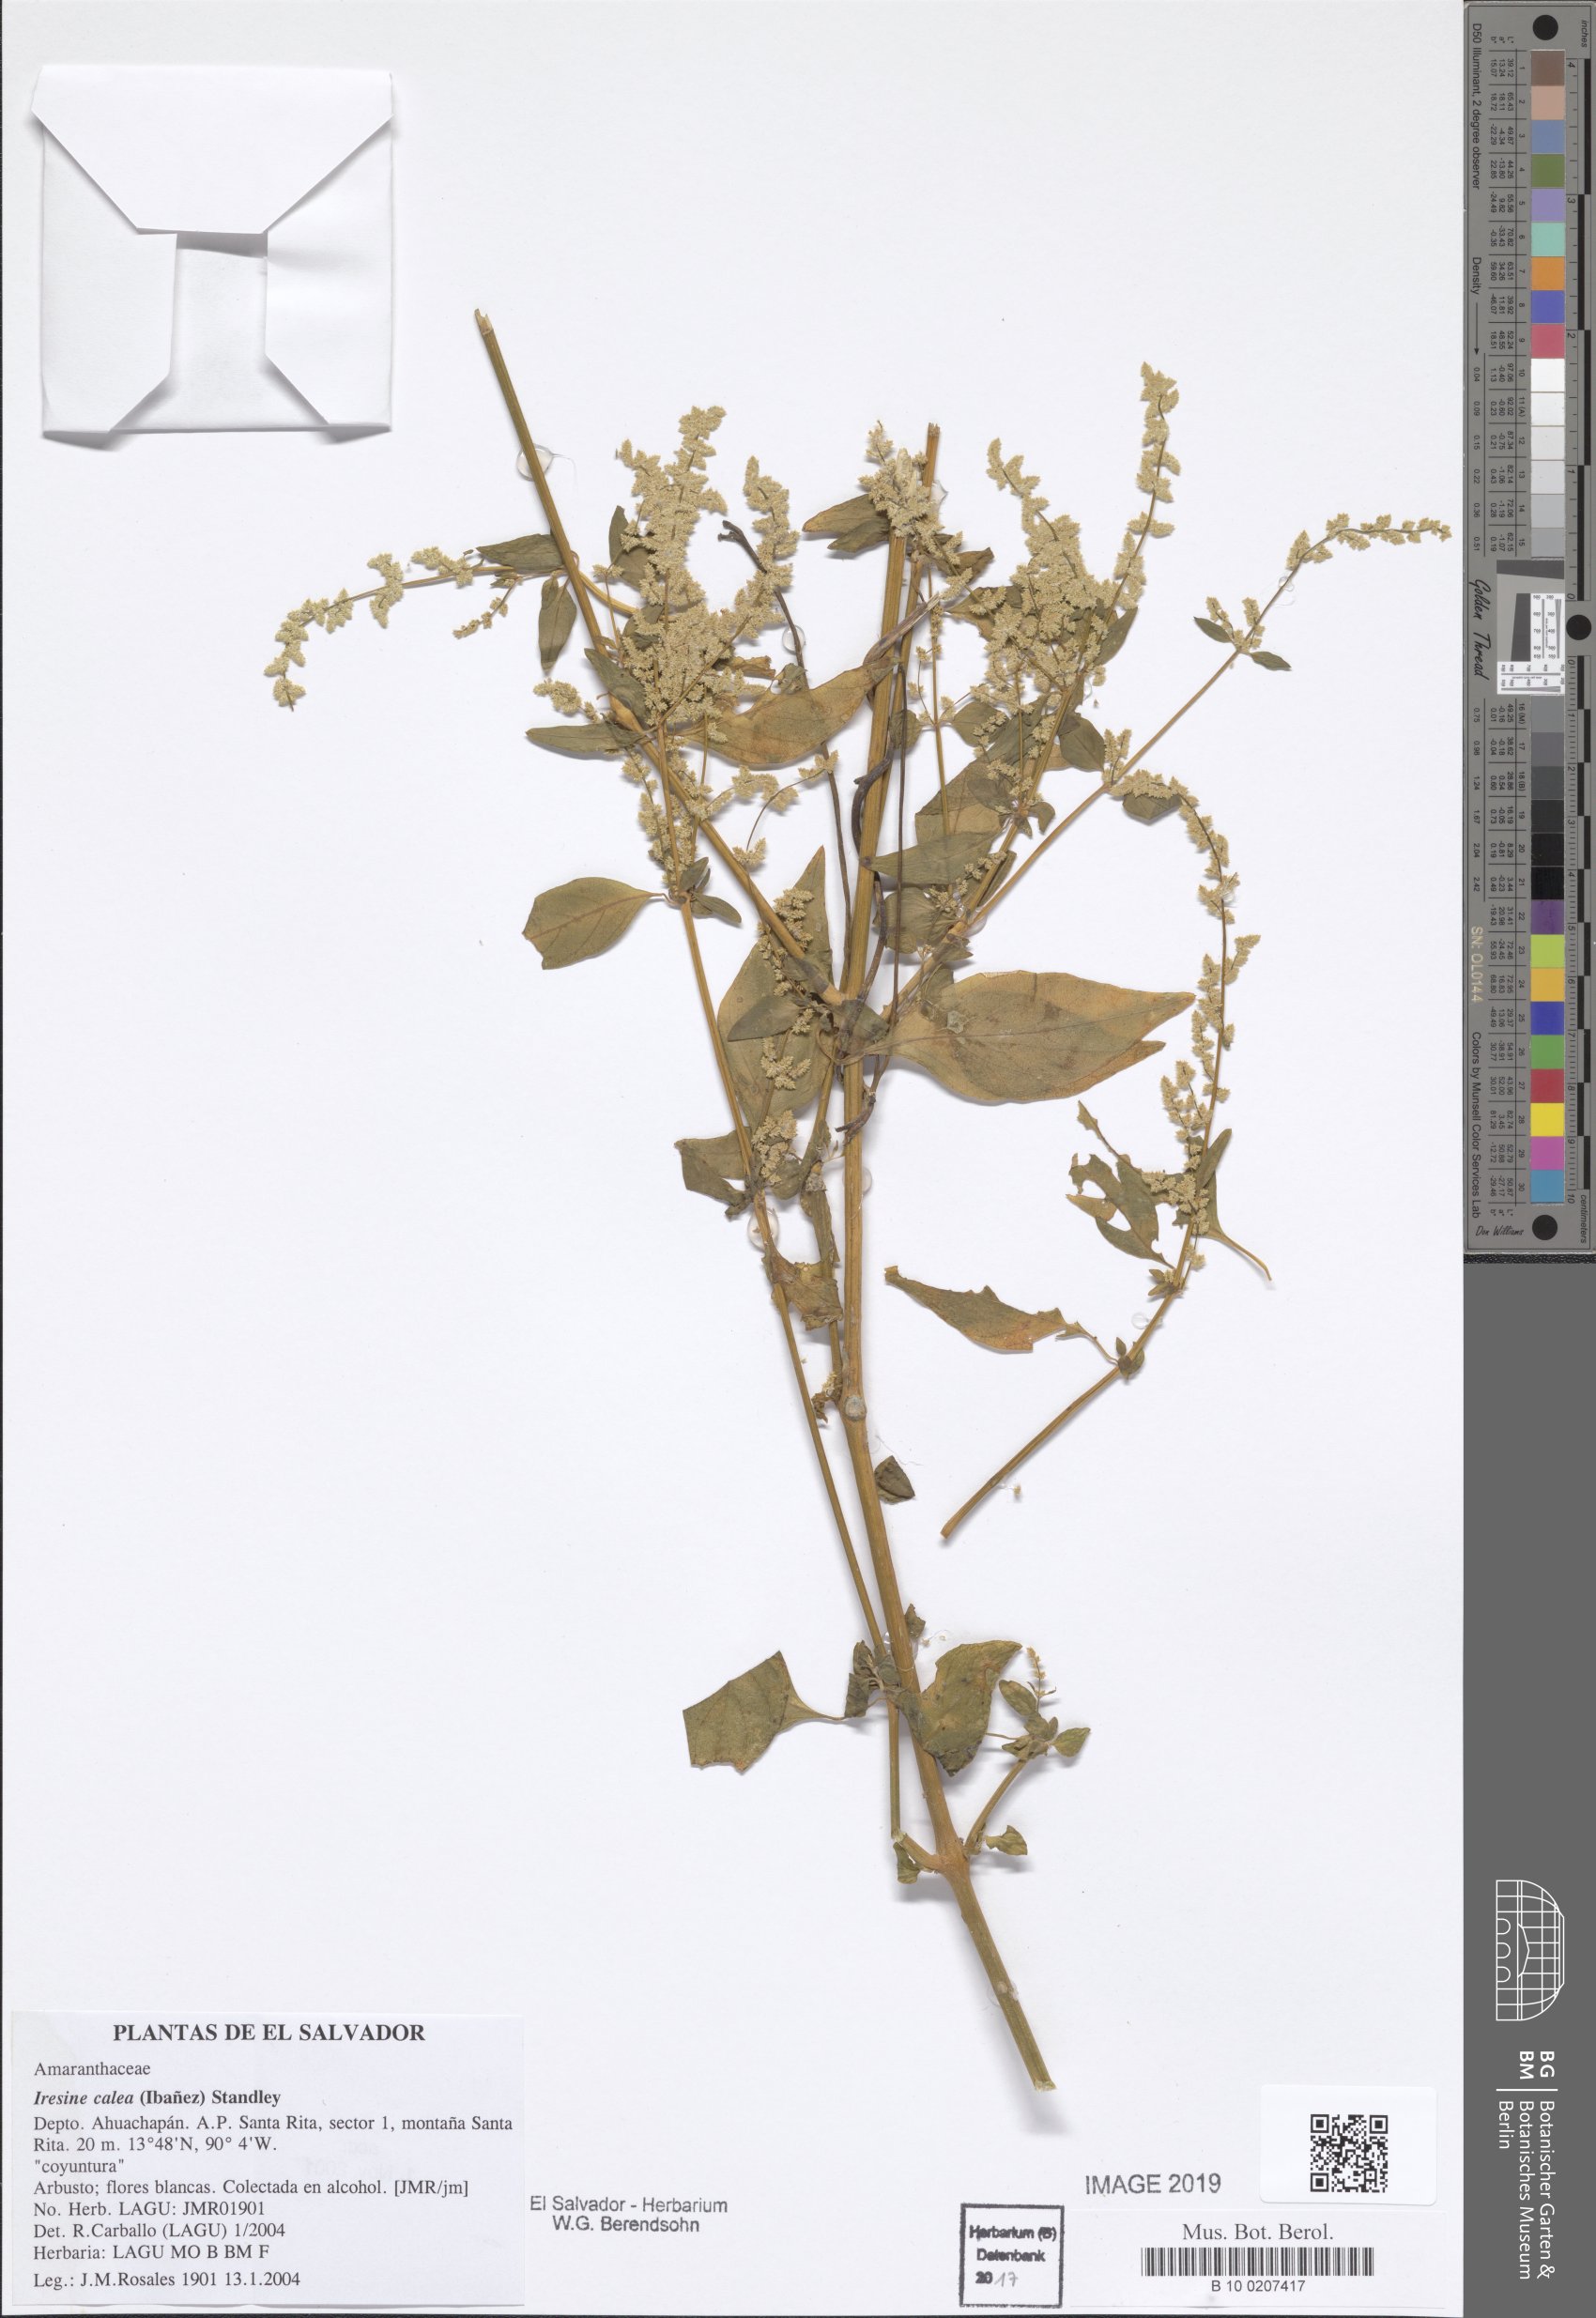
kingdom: Plantae
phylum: Tracheophyta
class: Magnoliopsida
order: Caryophyllales
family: Amaranthaceae
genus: Iresine
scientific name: Iresine latifolia
